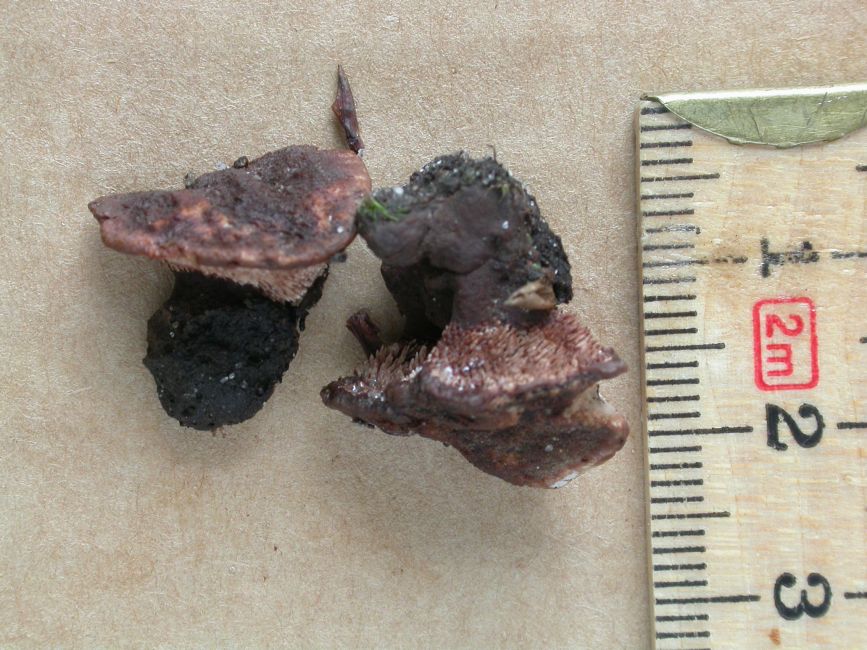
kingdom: Fungi
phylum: Basidiomycota
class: Agaricomycetes
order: Thelephorales
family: Bankeraceae
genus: Hydnellum
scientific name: Hydnellum cumulatum
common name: Rosette tooth
